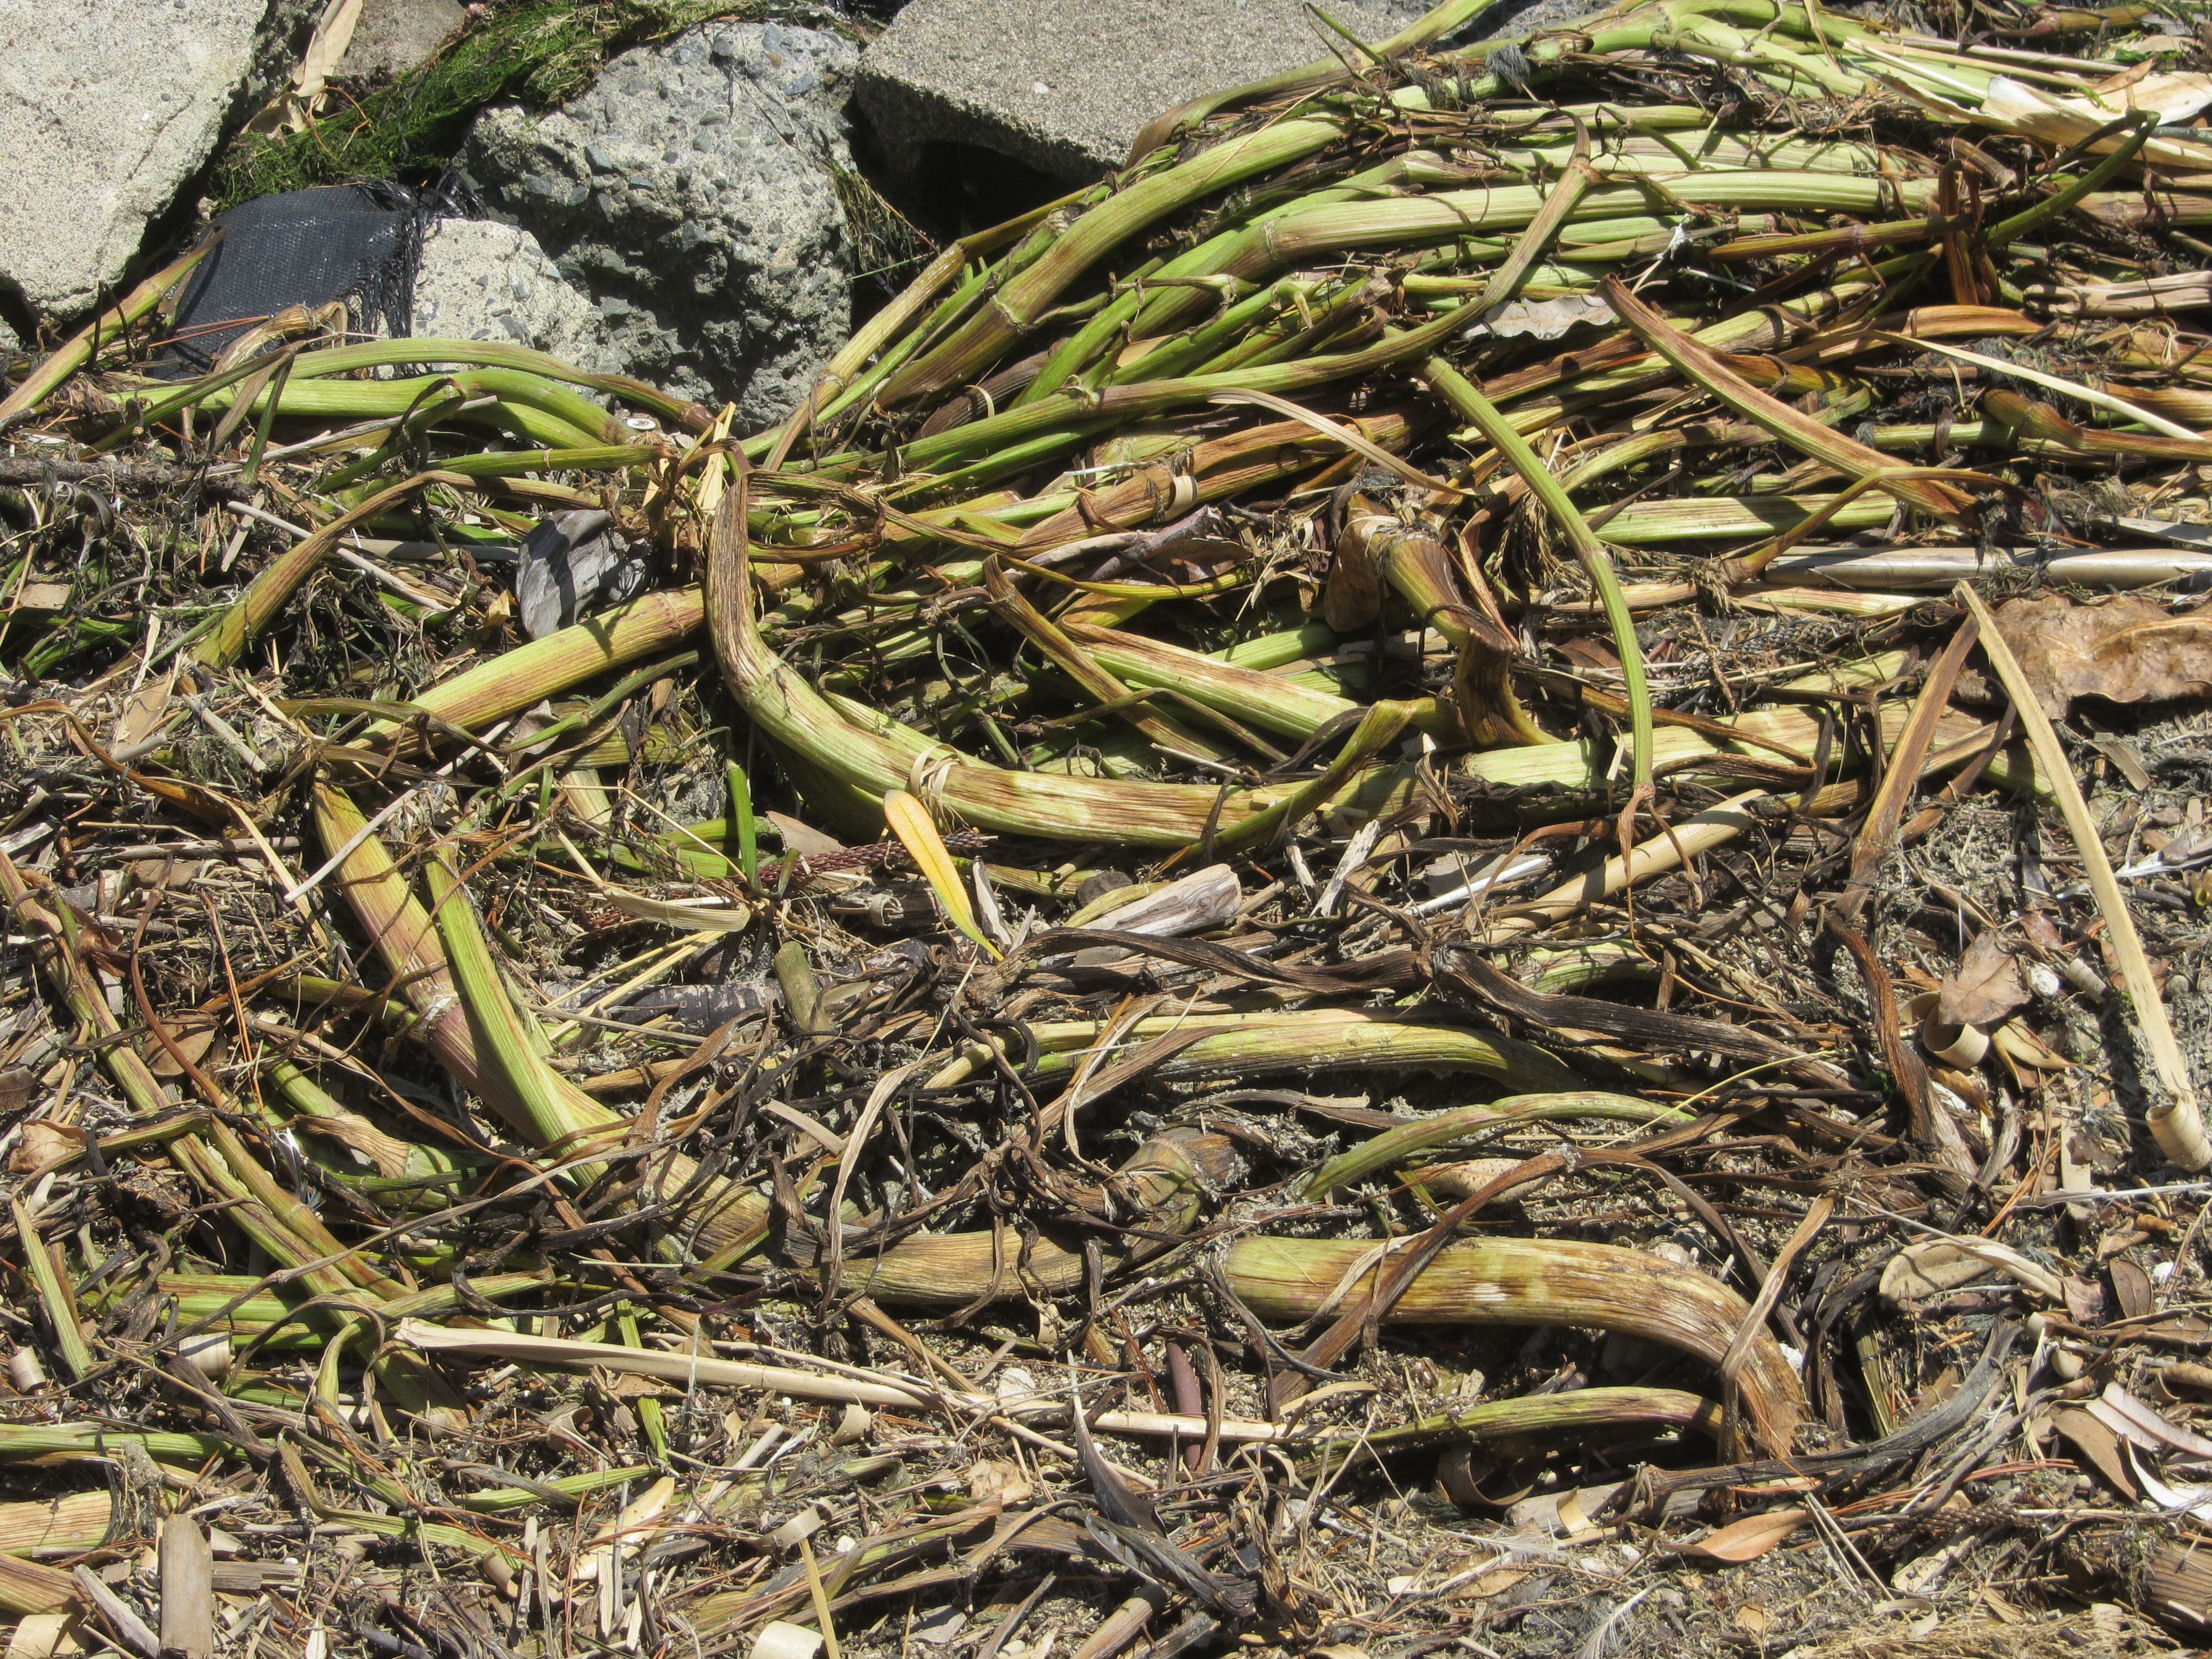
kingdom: Plantae
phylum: Tracheophyta
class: Magnoliopsida
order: Apiales
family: Apiaceae
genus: Helosciadium
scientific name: Helosciadium nodiflorum
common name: Fool's-watercress
